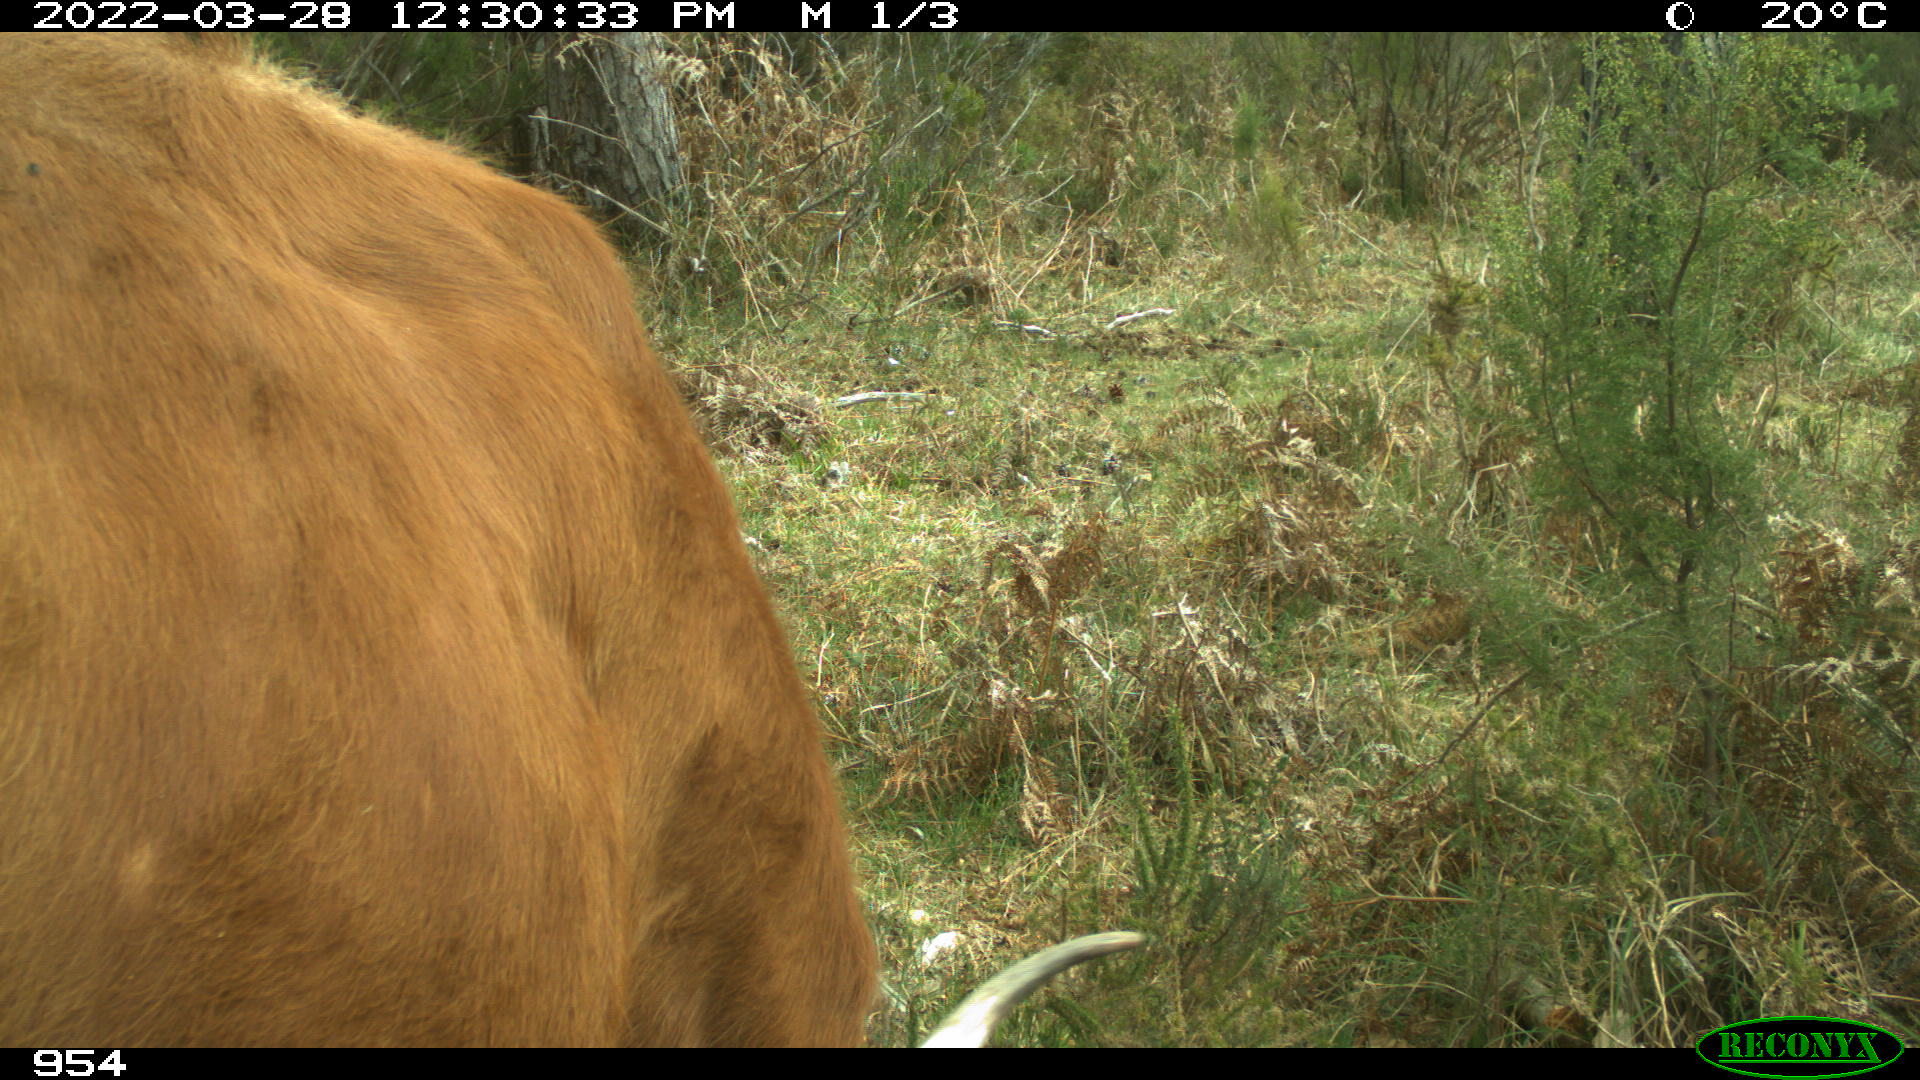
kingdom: Animalia
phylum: Chordata
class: Mammalia
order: Artiodactyla
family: Bovidae
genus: Bos
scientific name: Bos taurus
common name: Domesticated cattle
